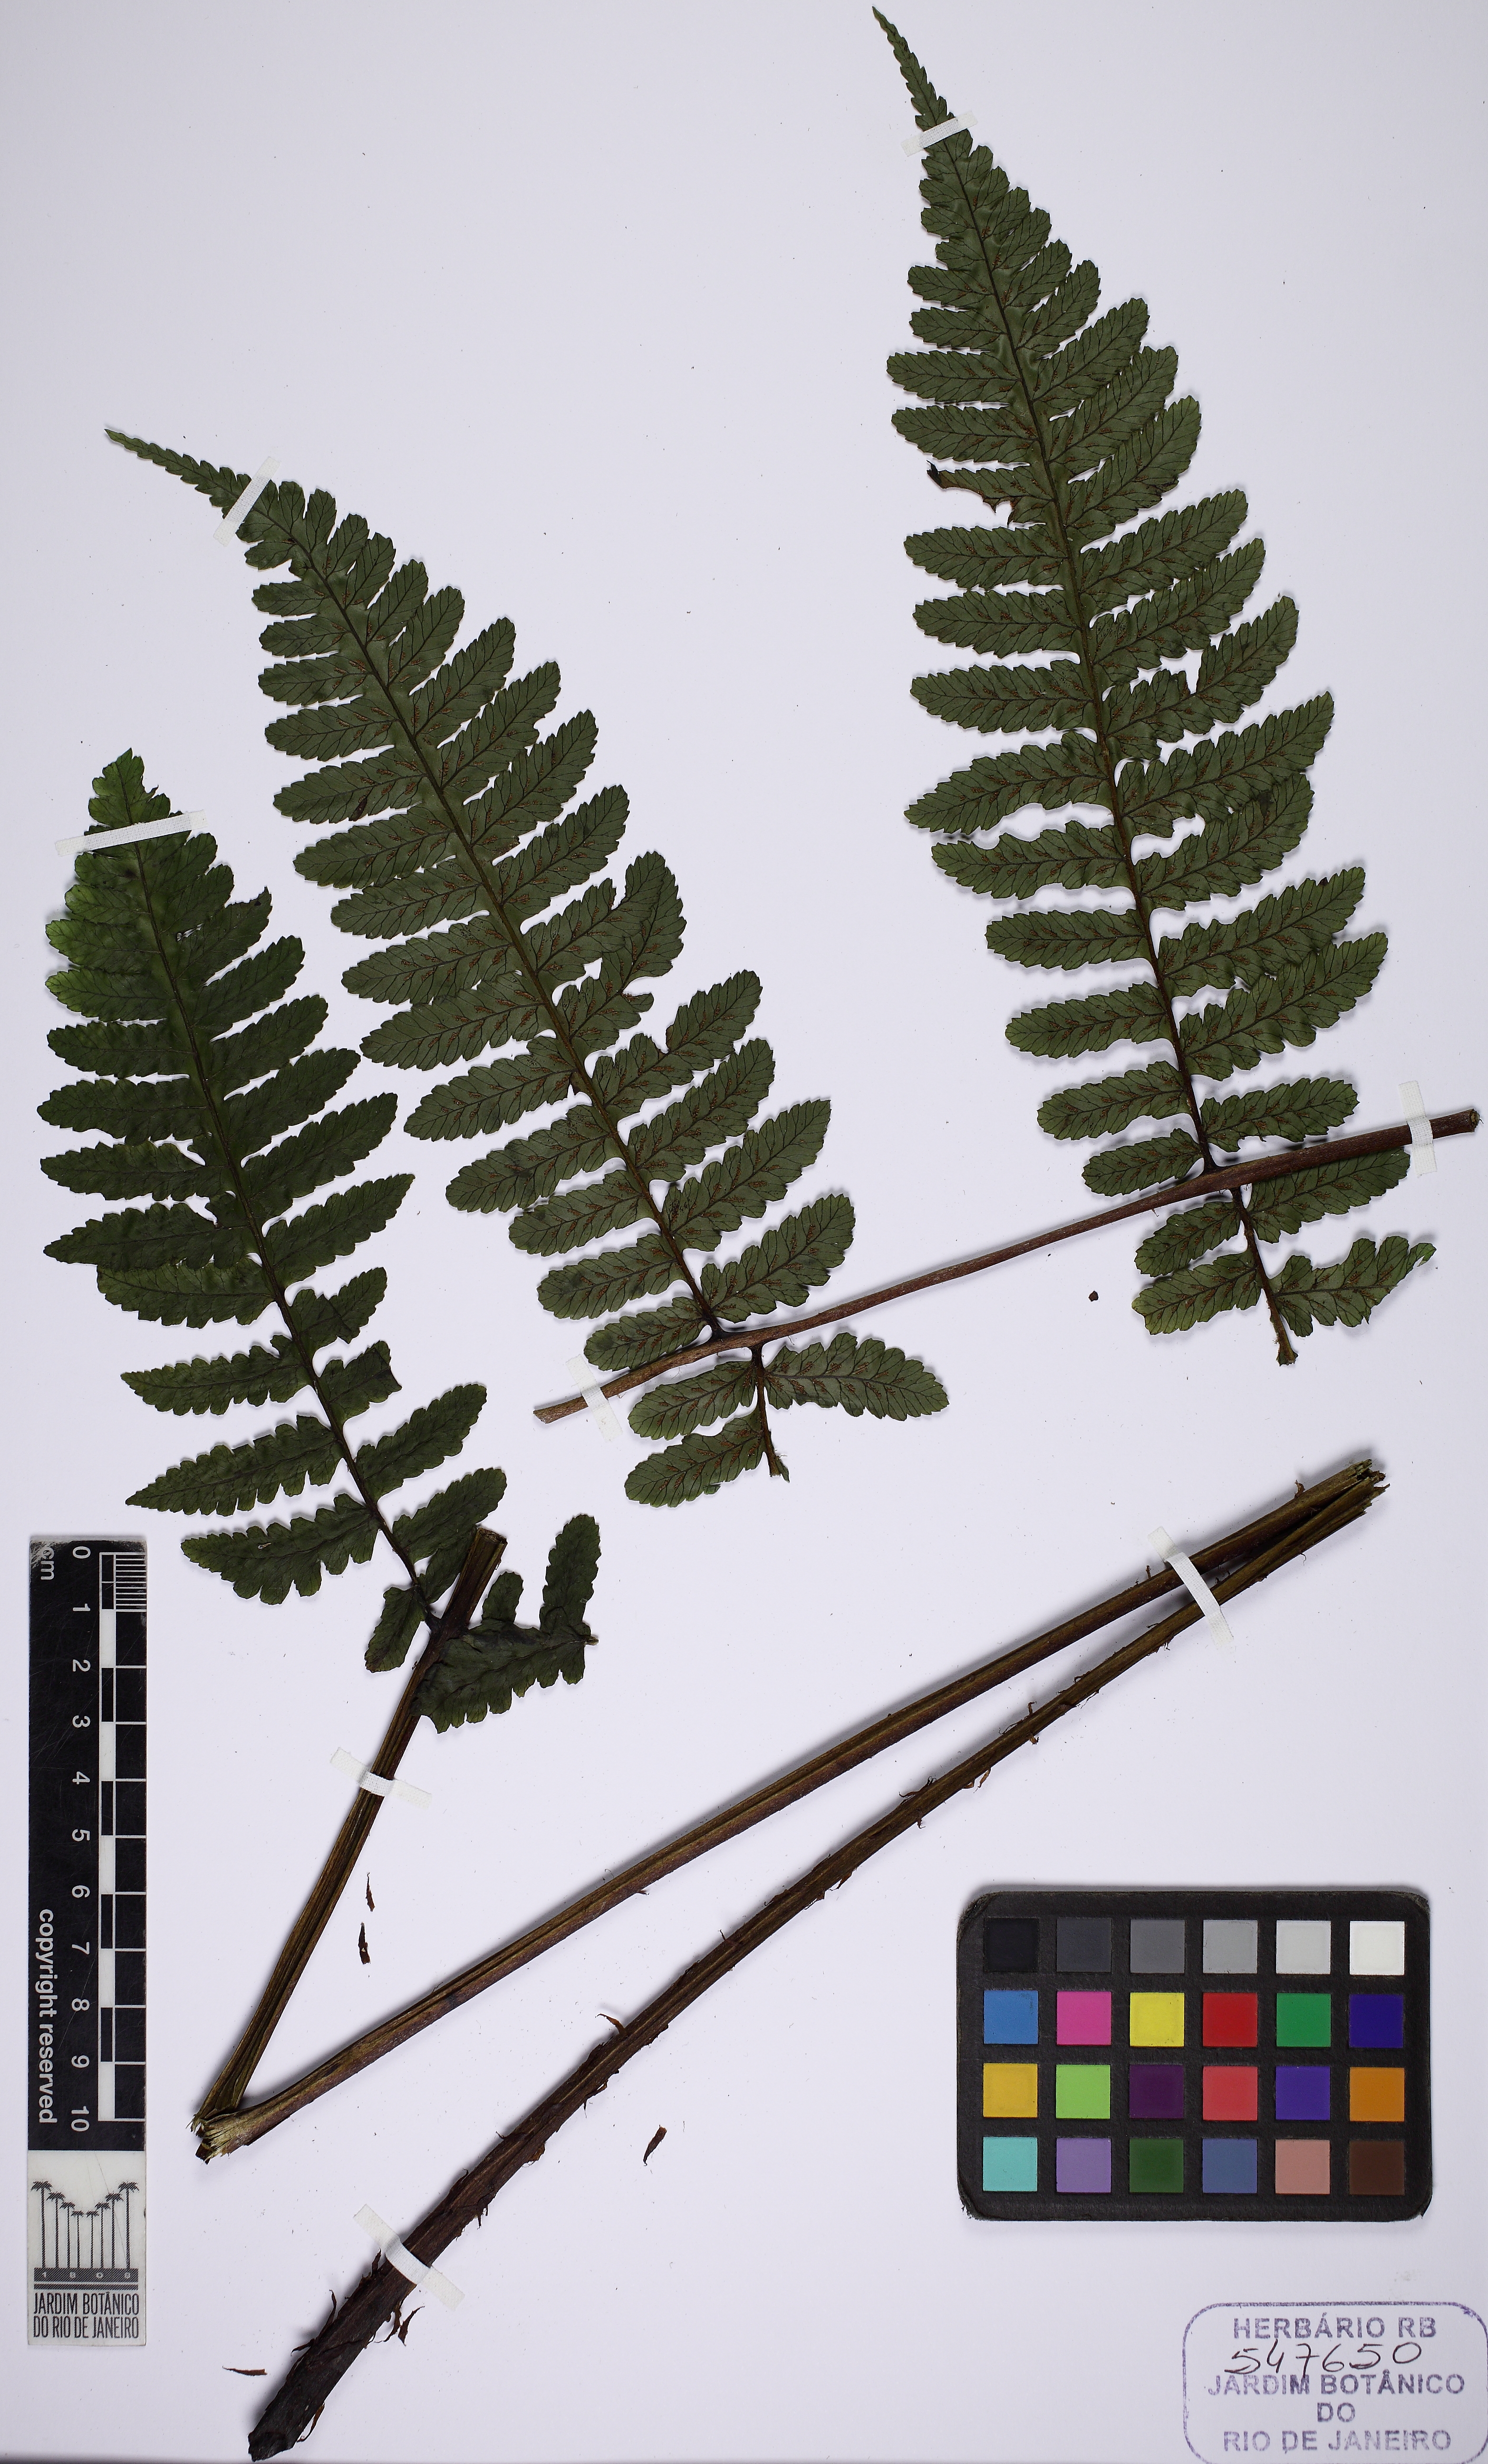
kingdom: Plantae
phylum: Tracheophyta
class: Polypodiopsida
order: Polypodiales
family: Athyriaceae
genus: Diplazium
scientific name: Diplazium leptocarpon
